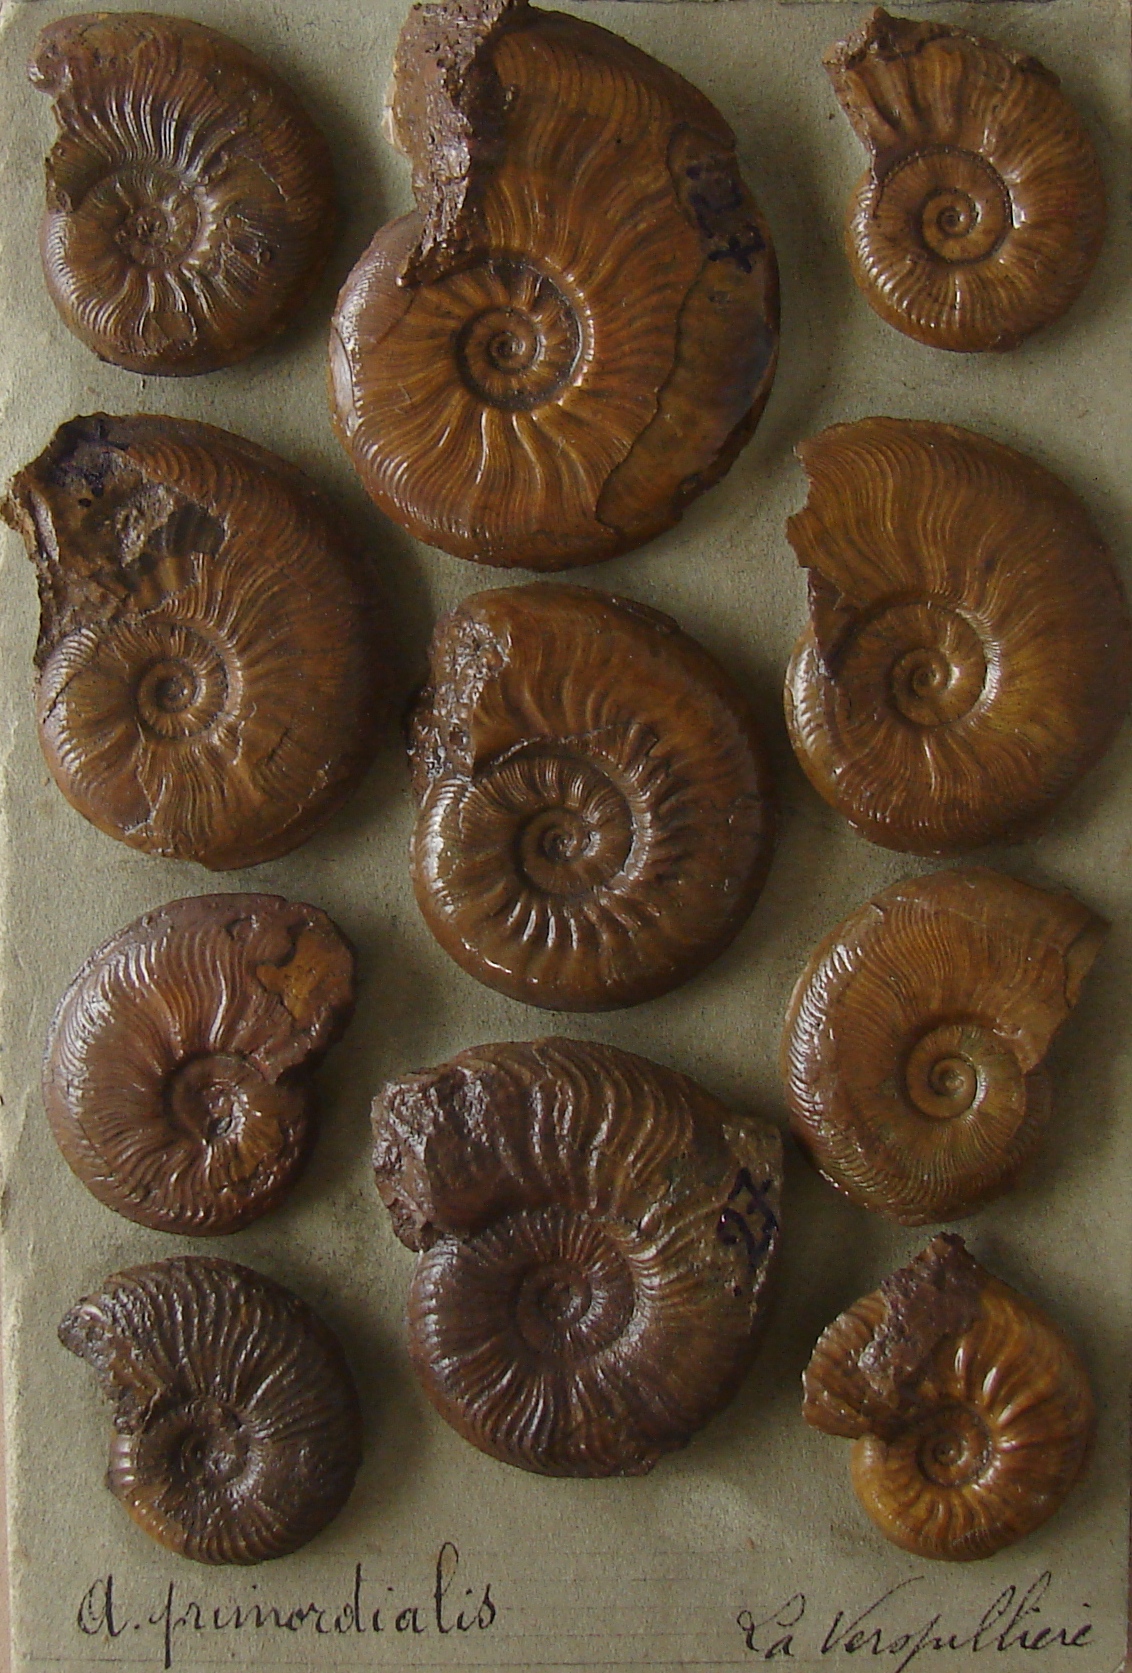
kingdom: Animalia
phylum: Mollusca
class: Gastropoda
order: Pleurotomariida
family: Porcelliidae
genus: Coloniacirrus
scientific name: Coloniacirrus Ammonites primordialis
